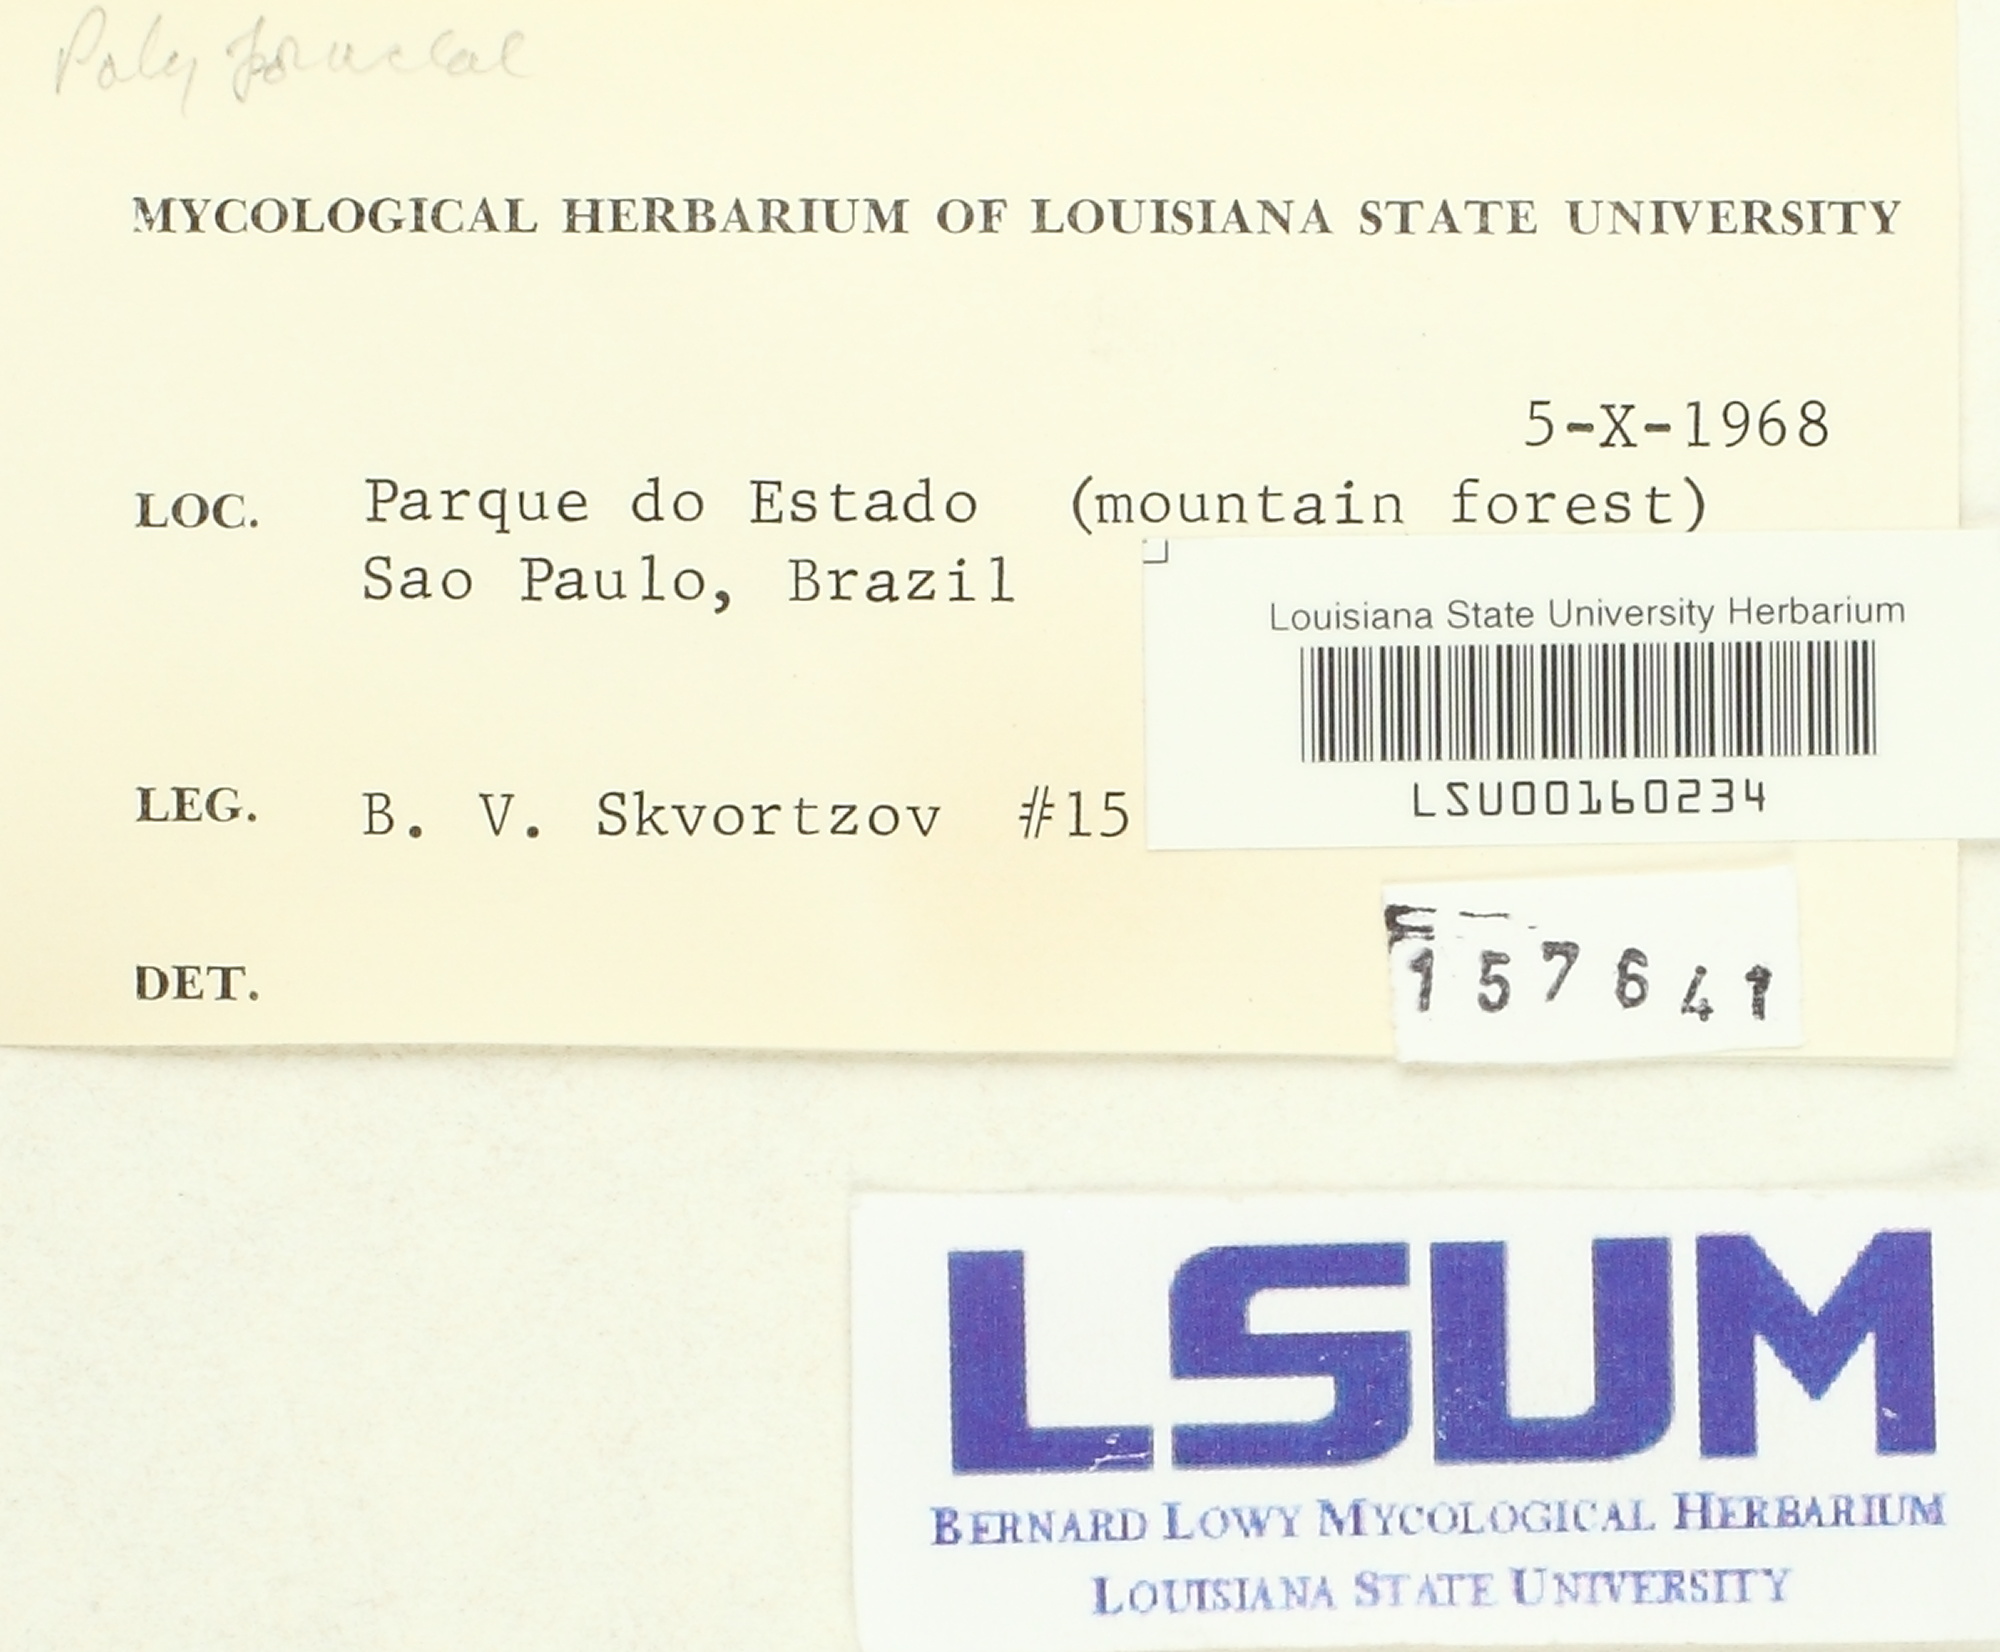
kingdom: Fungi
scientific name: Fungi
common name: Fungi
